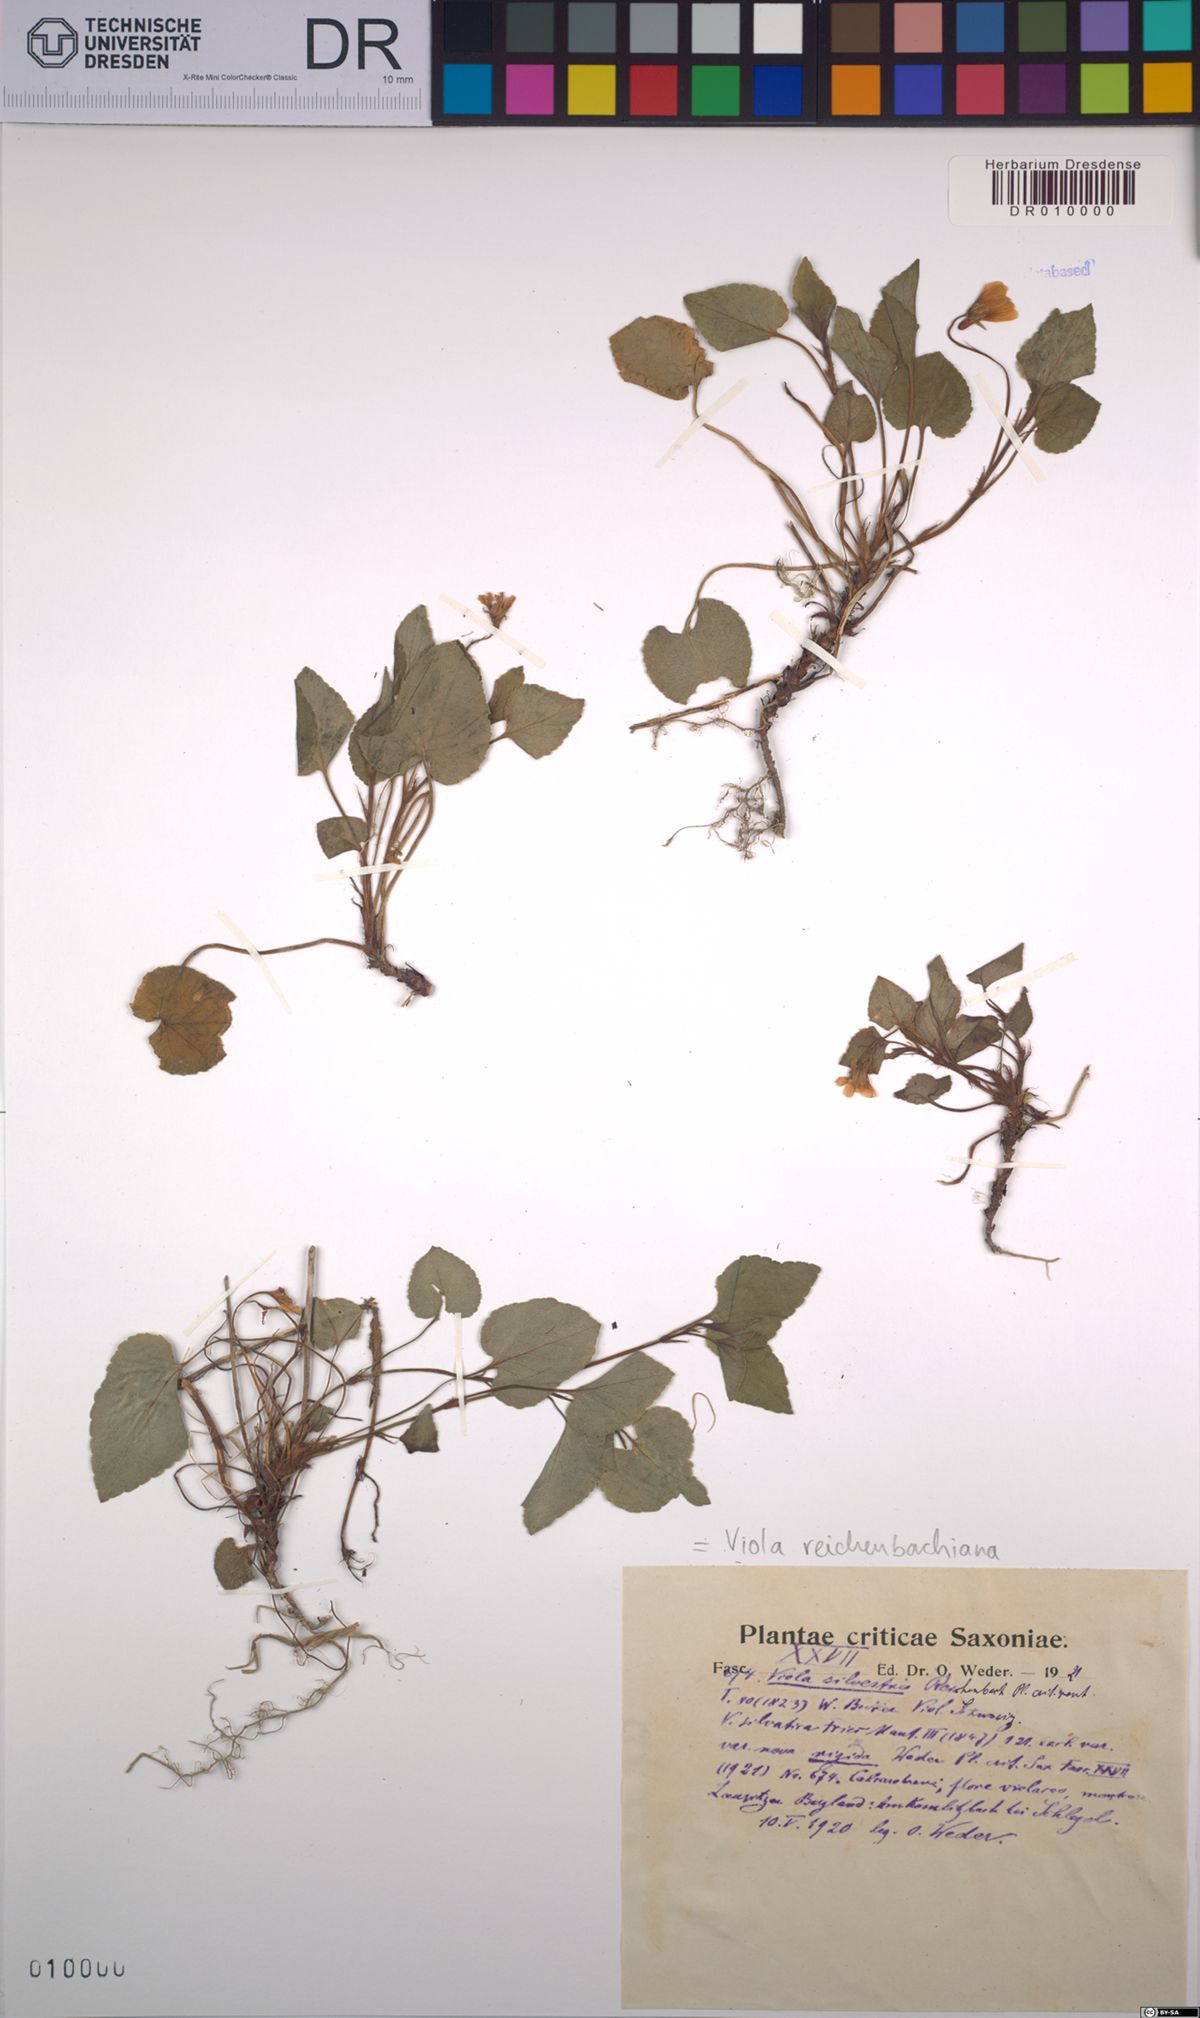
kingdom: Plantae
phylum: Tracheophyta
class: Magnoliopsida
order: Malpighiales
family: Violaceae
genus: Viola
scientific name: Viola reichenbachiana
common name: Early dog-violet
